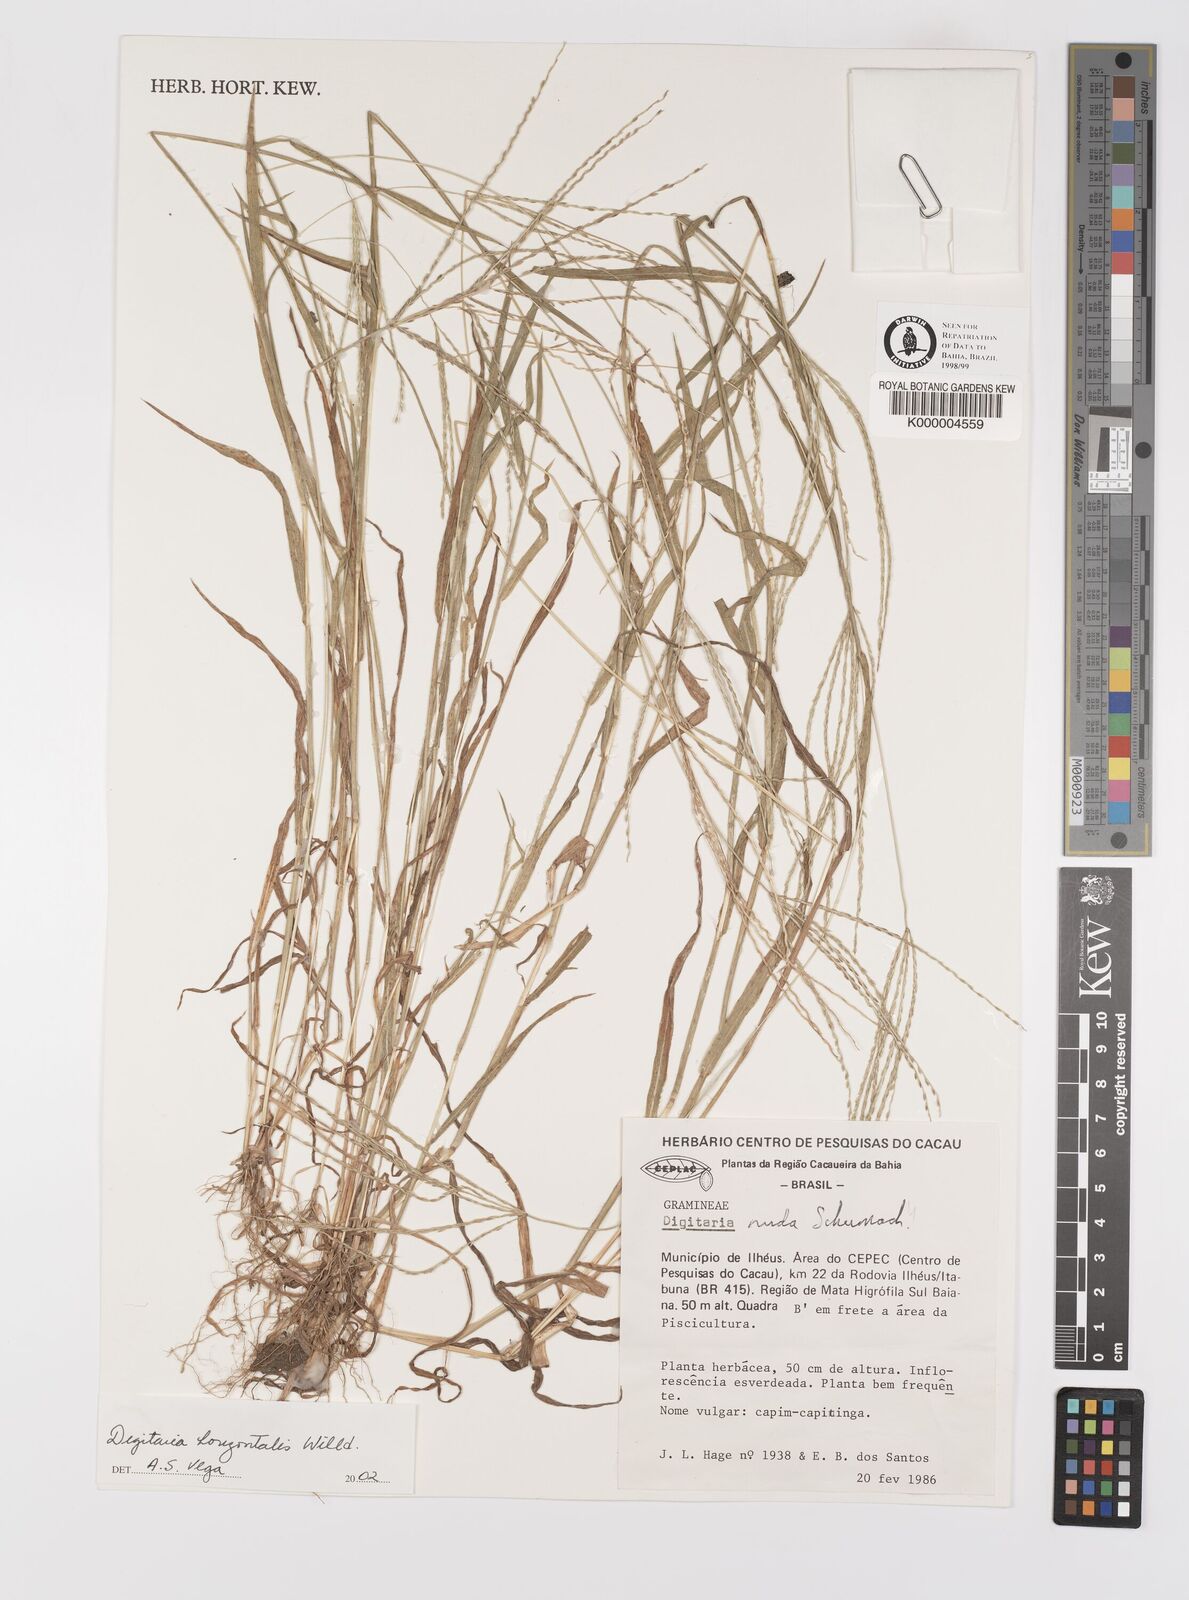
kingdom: Plantae
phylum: Tracheophyta
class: Liliopsida
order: Poales
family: Poaceae
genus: Digitaria
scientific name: Digitaria nuda
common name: Naked crabgrass
